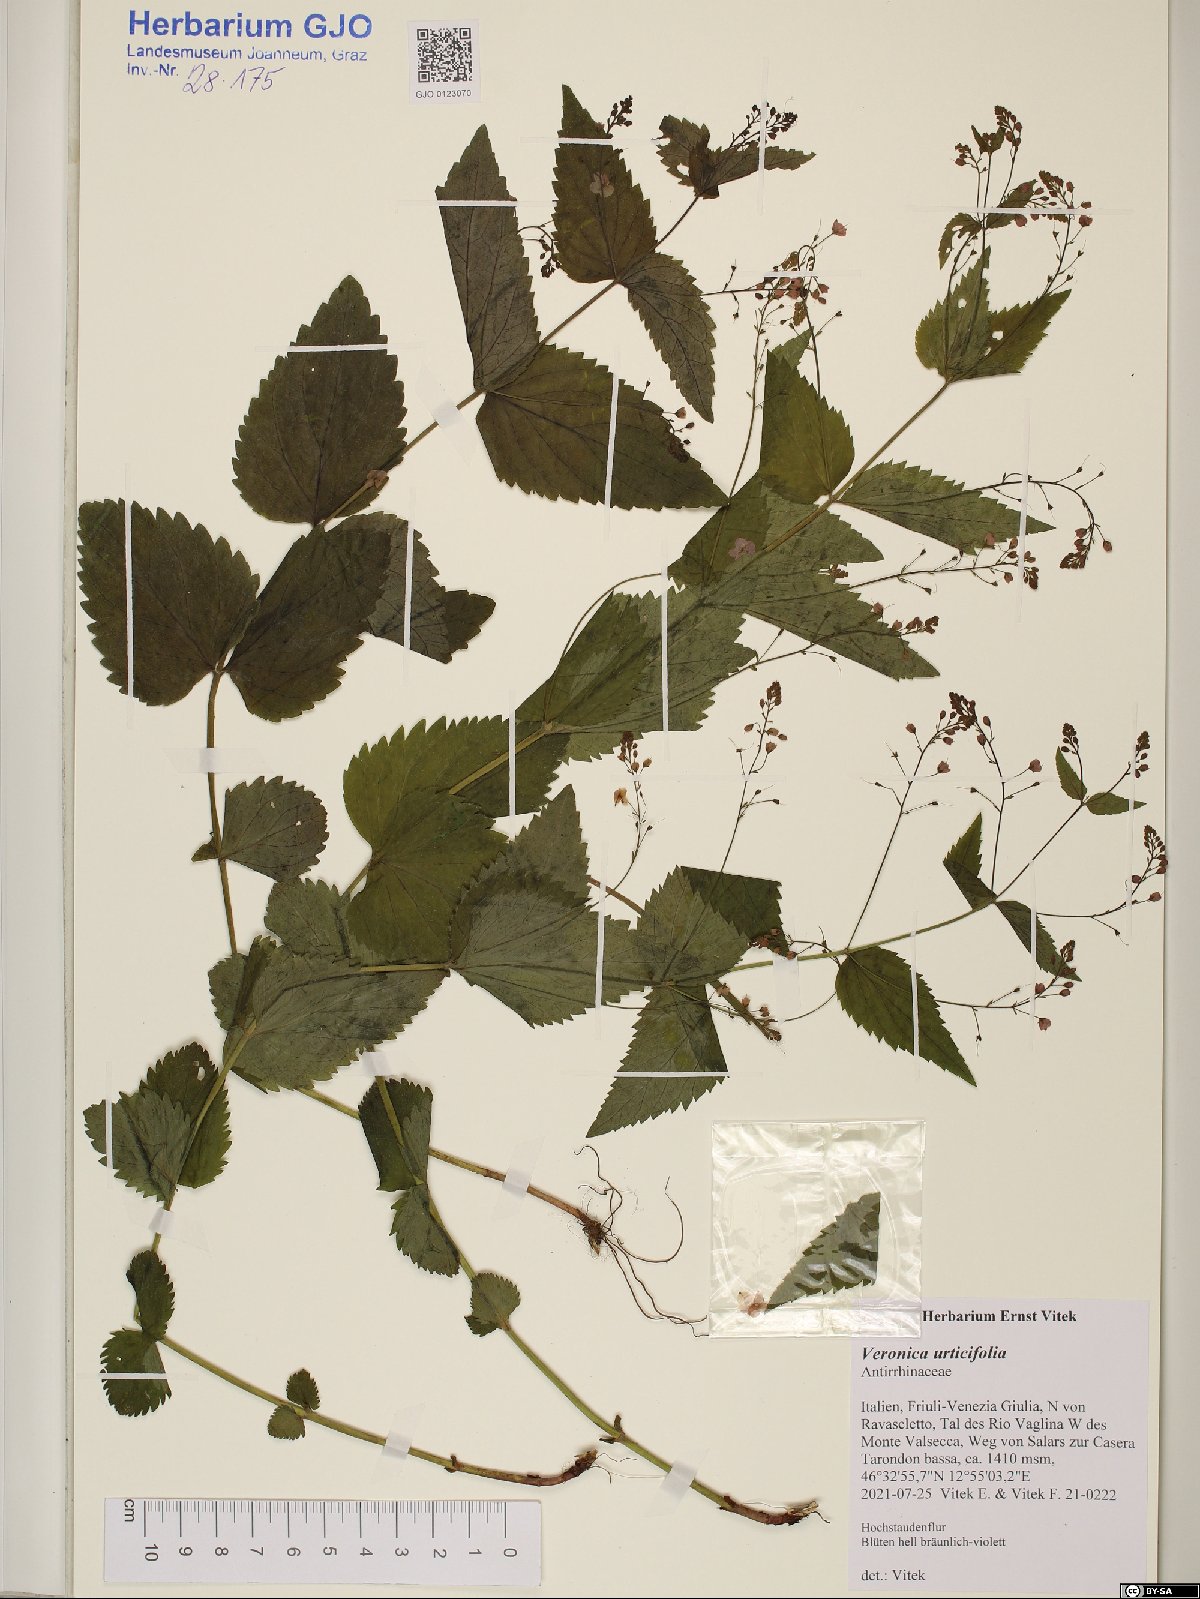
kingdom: Plantae
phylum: Tracheophyta
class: Magnoliopsida
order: Lamiales
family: Plantaginaceae
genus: Veronica
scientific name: Veronica urticifolia
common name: Nettle-leaf speedwell
